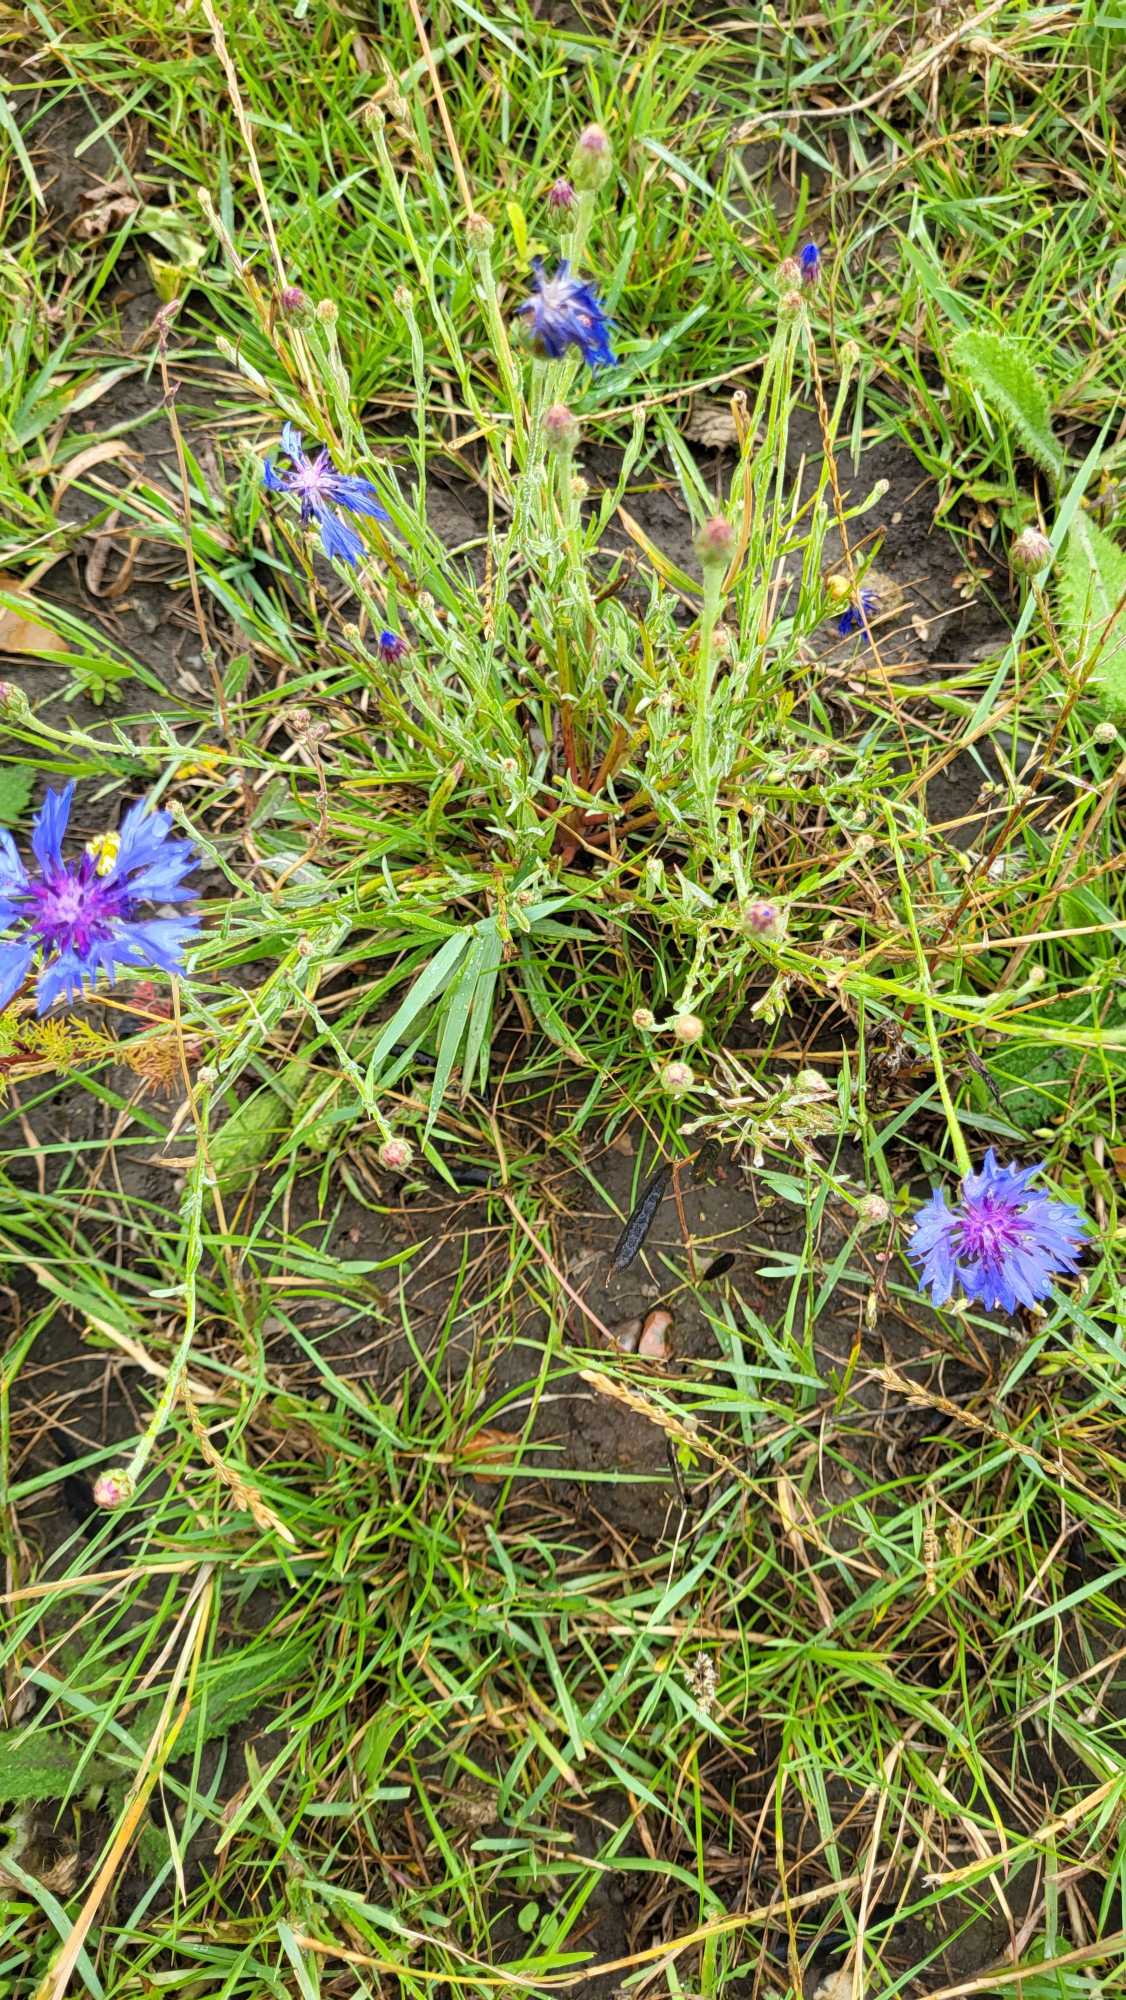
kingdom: Plantae
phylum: Tracheophyta
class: Magnoliopsida
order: Asterales
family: Asteraceae
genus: Centaurea
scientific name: Centaurea cyanus
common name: Kornblomst
